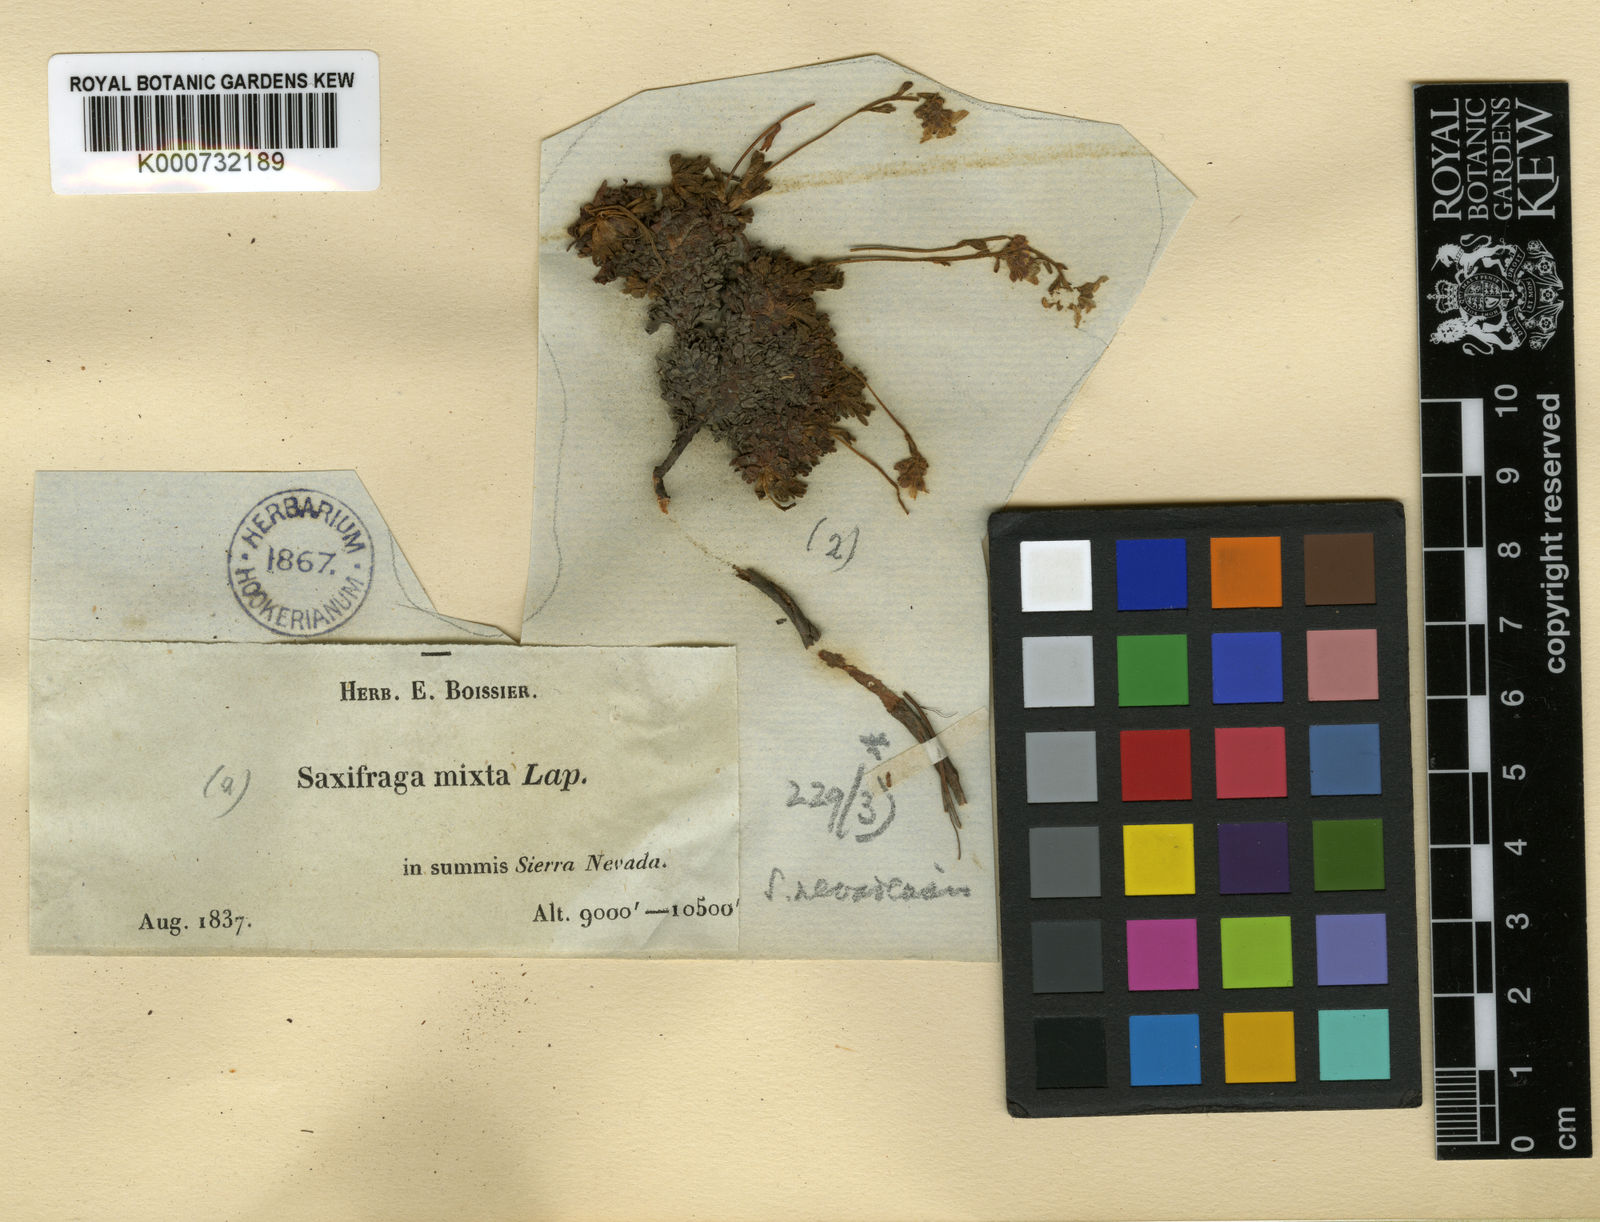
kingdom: Plantae
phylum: Tracheophyta
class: Magnoliopsida
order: Saxifragales
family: Saxifragaceae
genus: Saxifraga
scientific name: Saxifraga nevadensis
